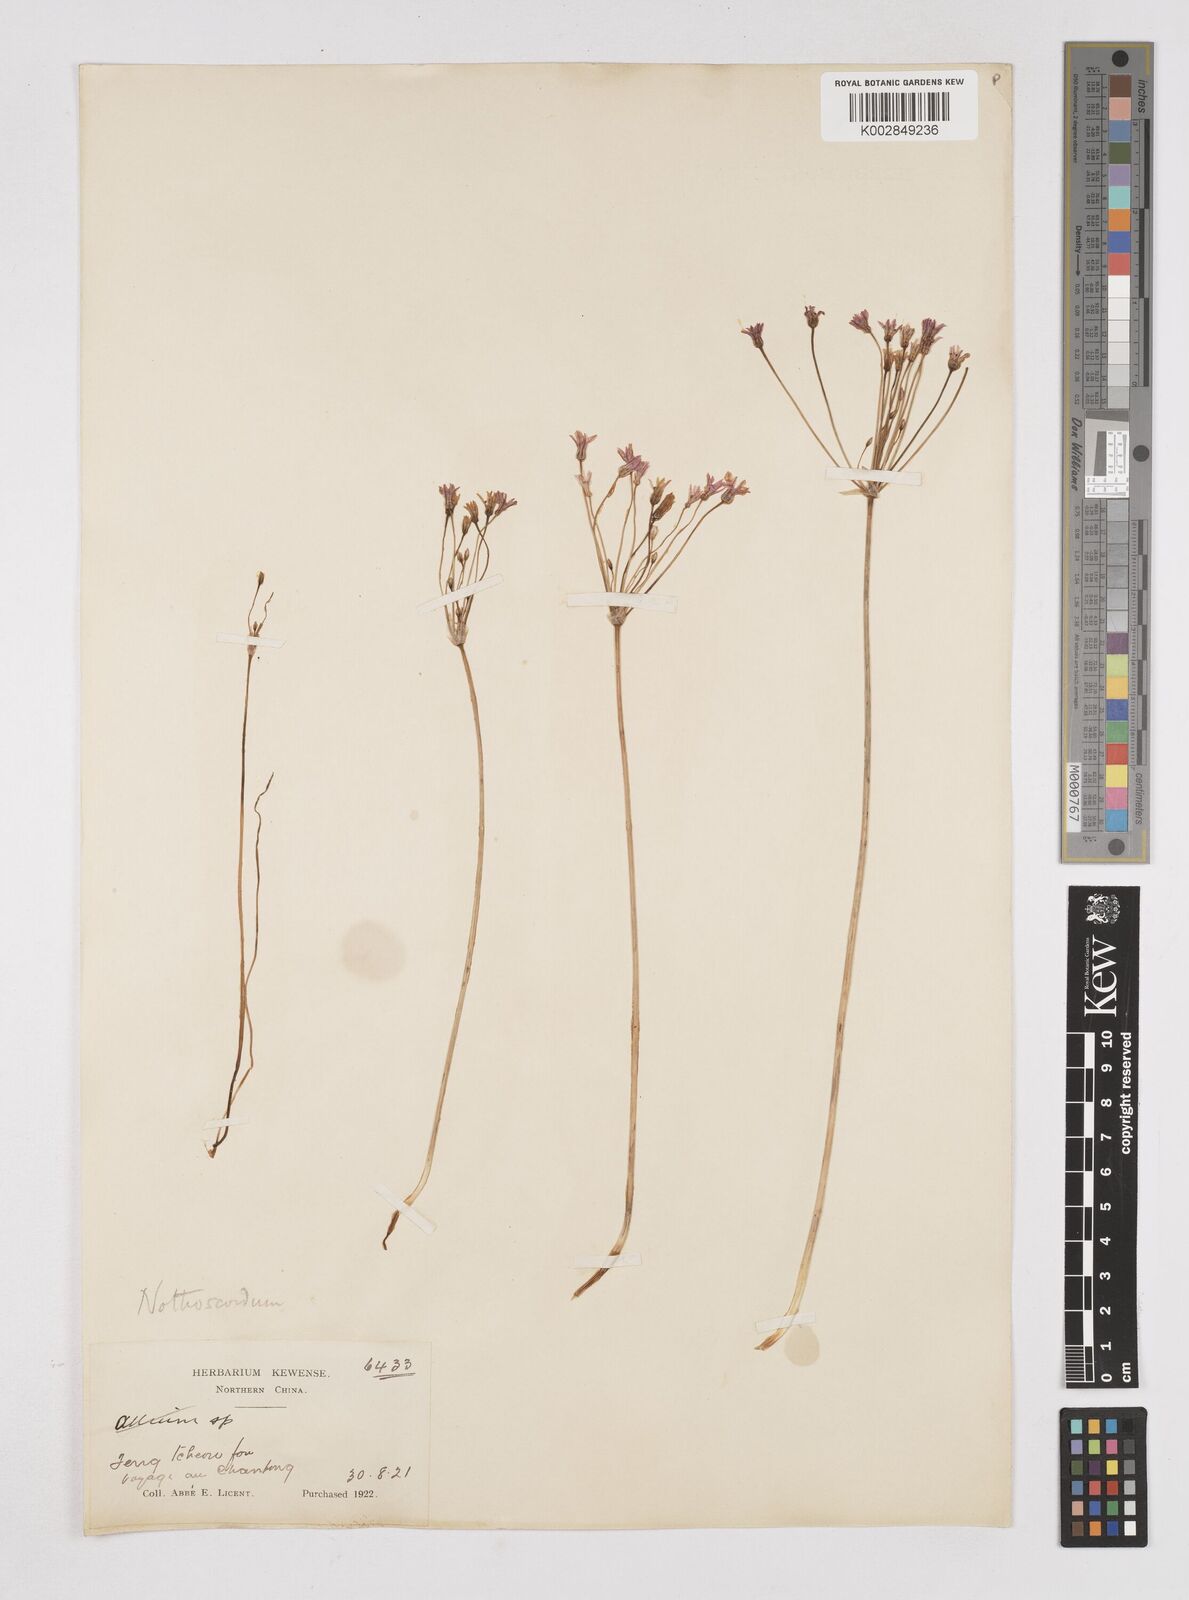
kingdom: Plantae
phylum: Tracheophyta
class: Liliopsida
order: Liliales
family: Liliaceae
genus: Agapanthus
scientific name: Agapanthus
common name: Agapanthus
